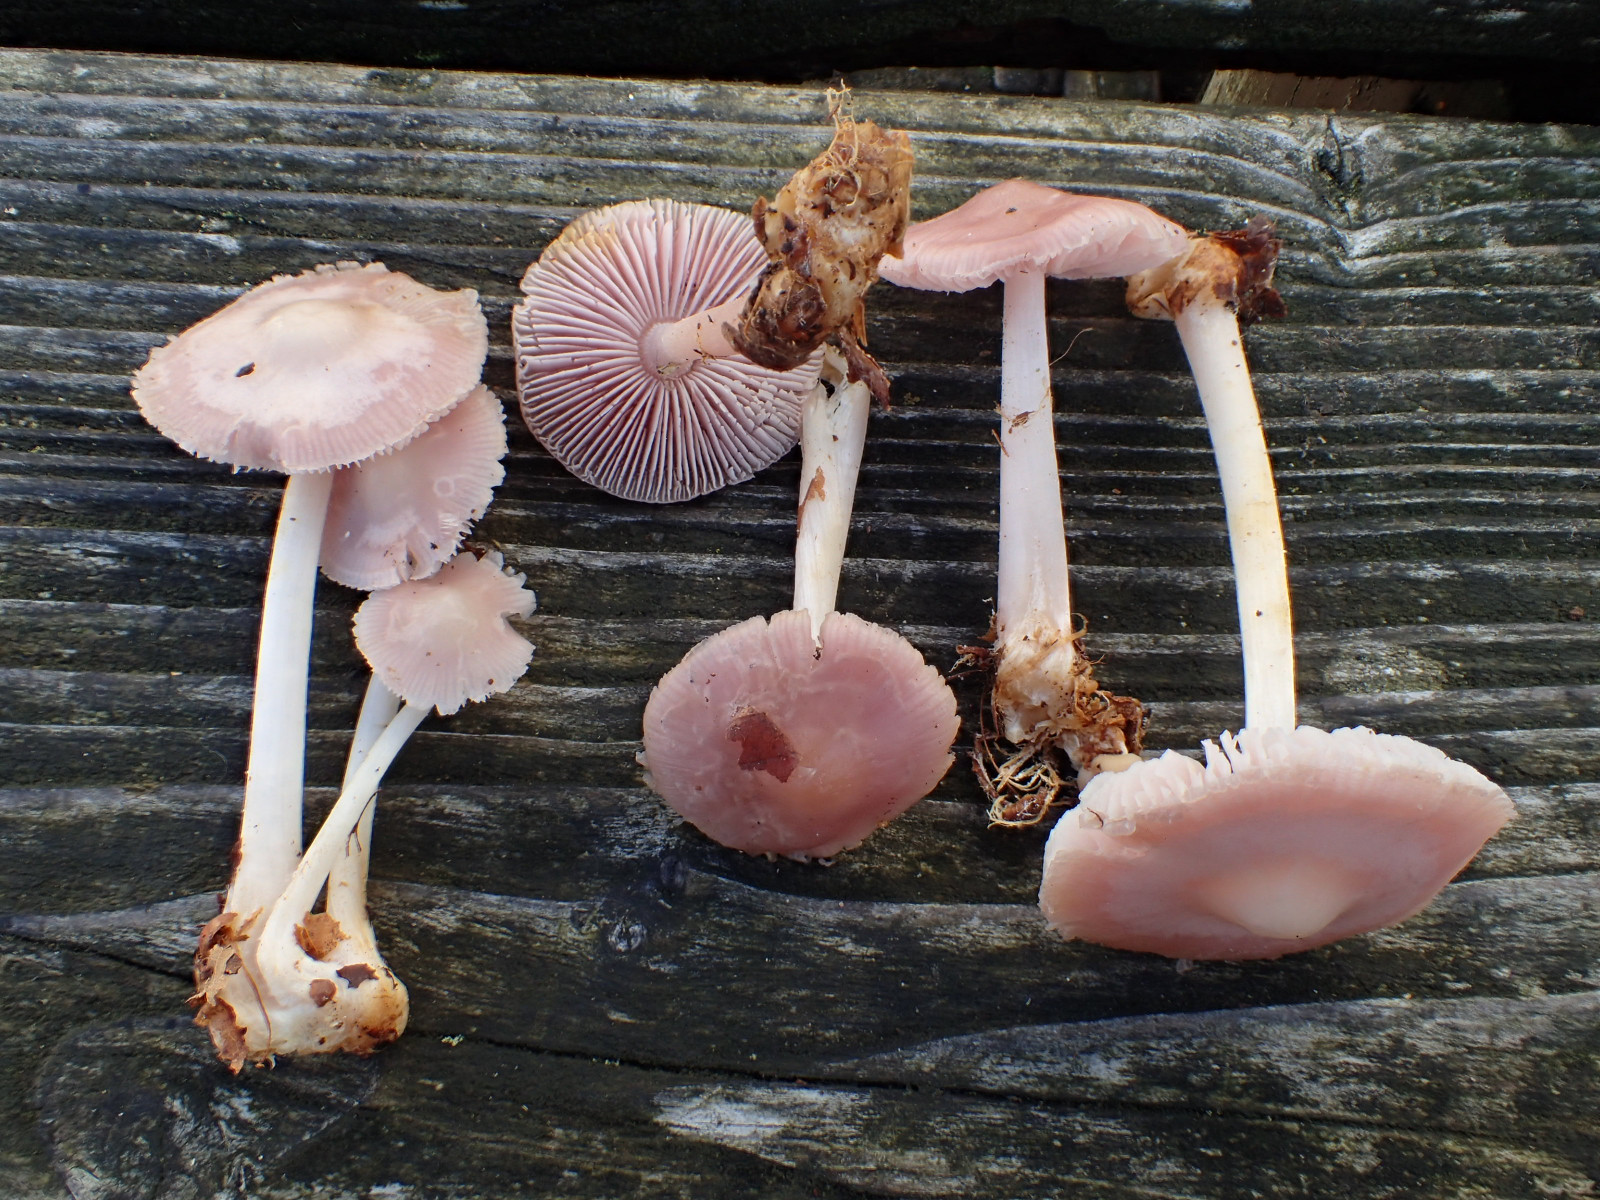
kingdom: Fungi
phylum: Basidiomycota
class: Agaricomycetes
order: Agaricales
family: Mycenaceae
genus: Mycena
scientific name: Mycena rosea
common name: rosa huesvamp
